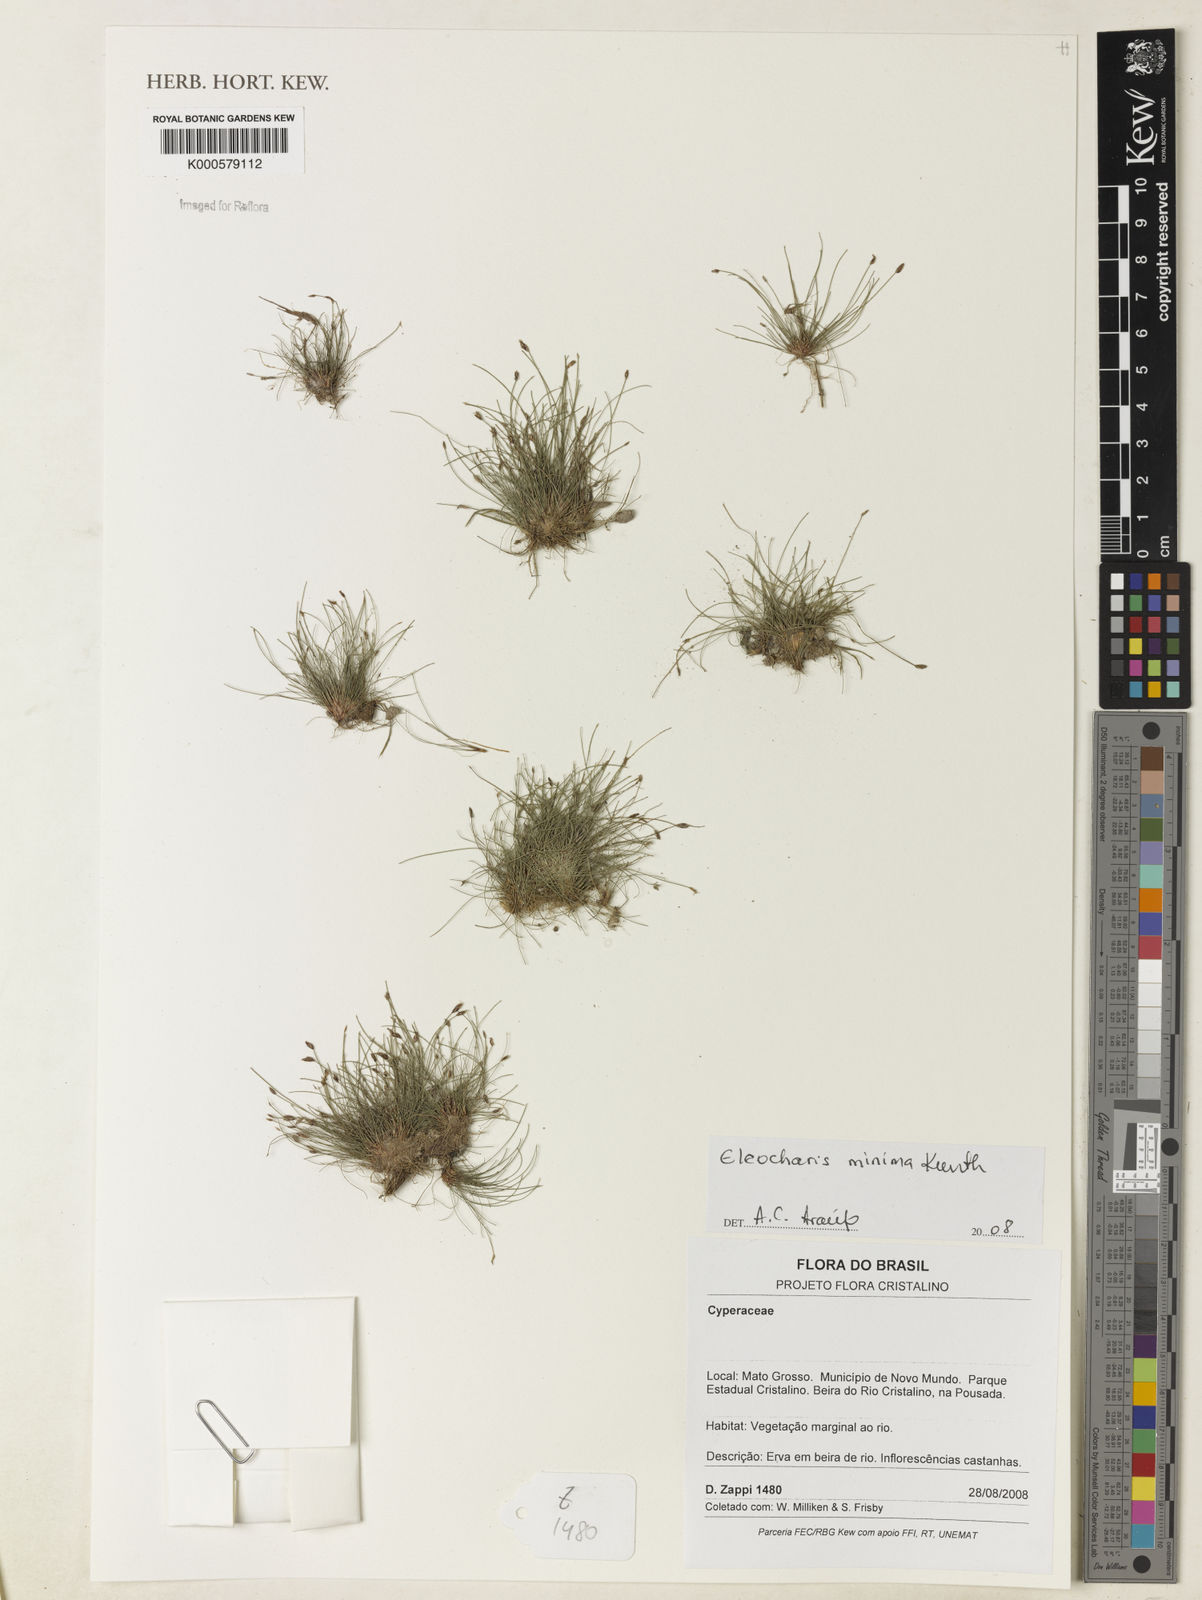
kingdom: Plantae
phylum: Tracheophyta
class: Liliopsida
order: Poales
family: Cyperaceae
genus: Eleocharis
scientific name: Eleocharis minima
